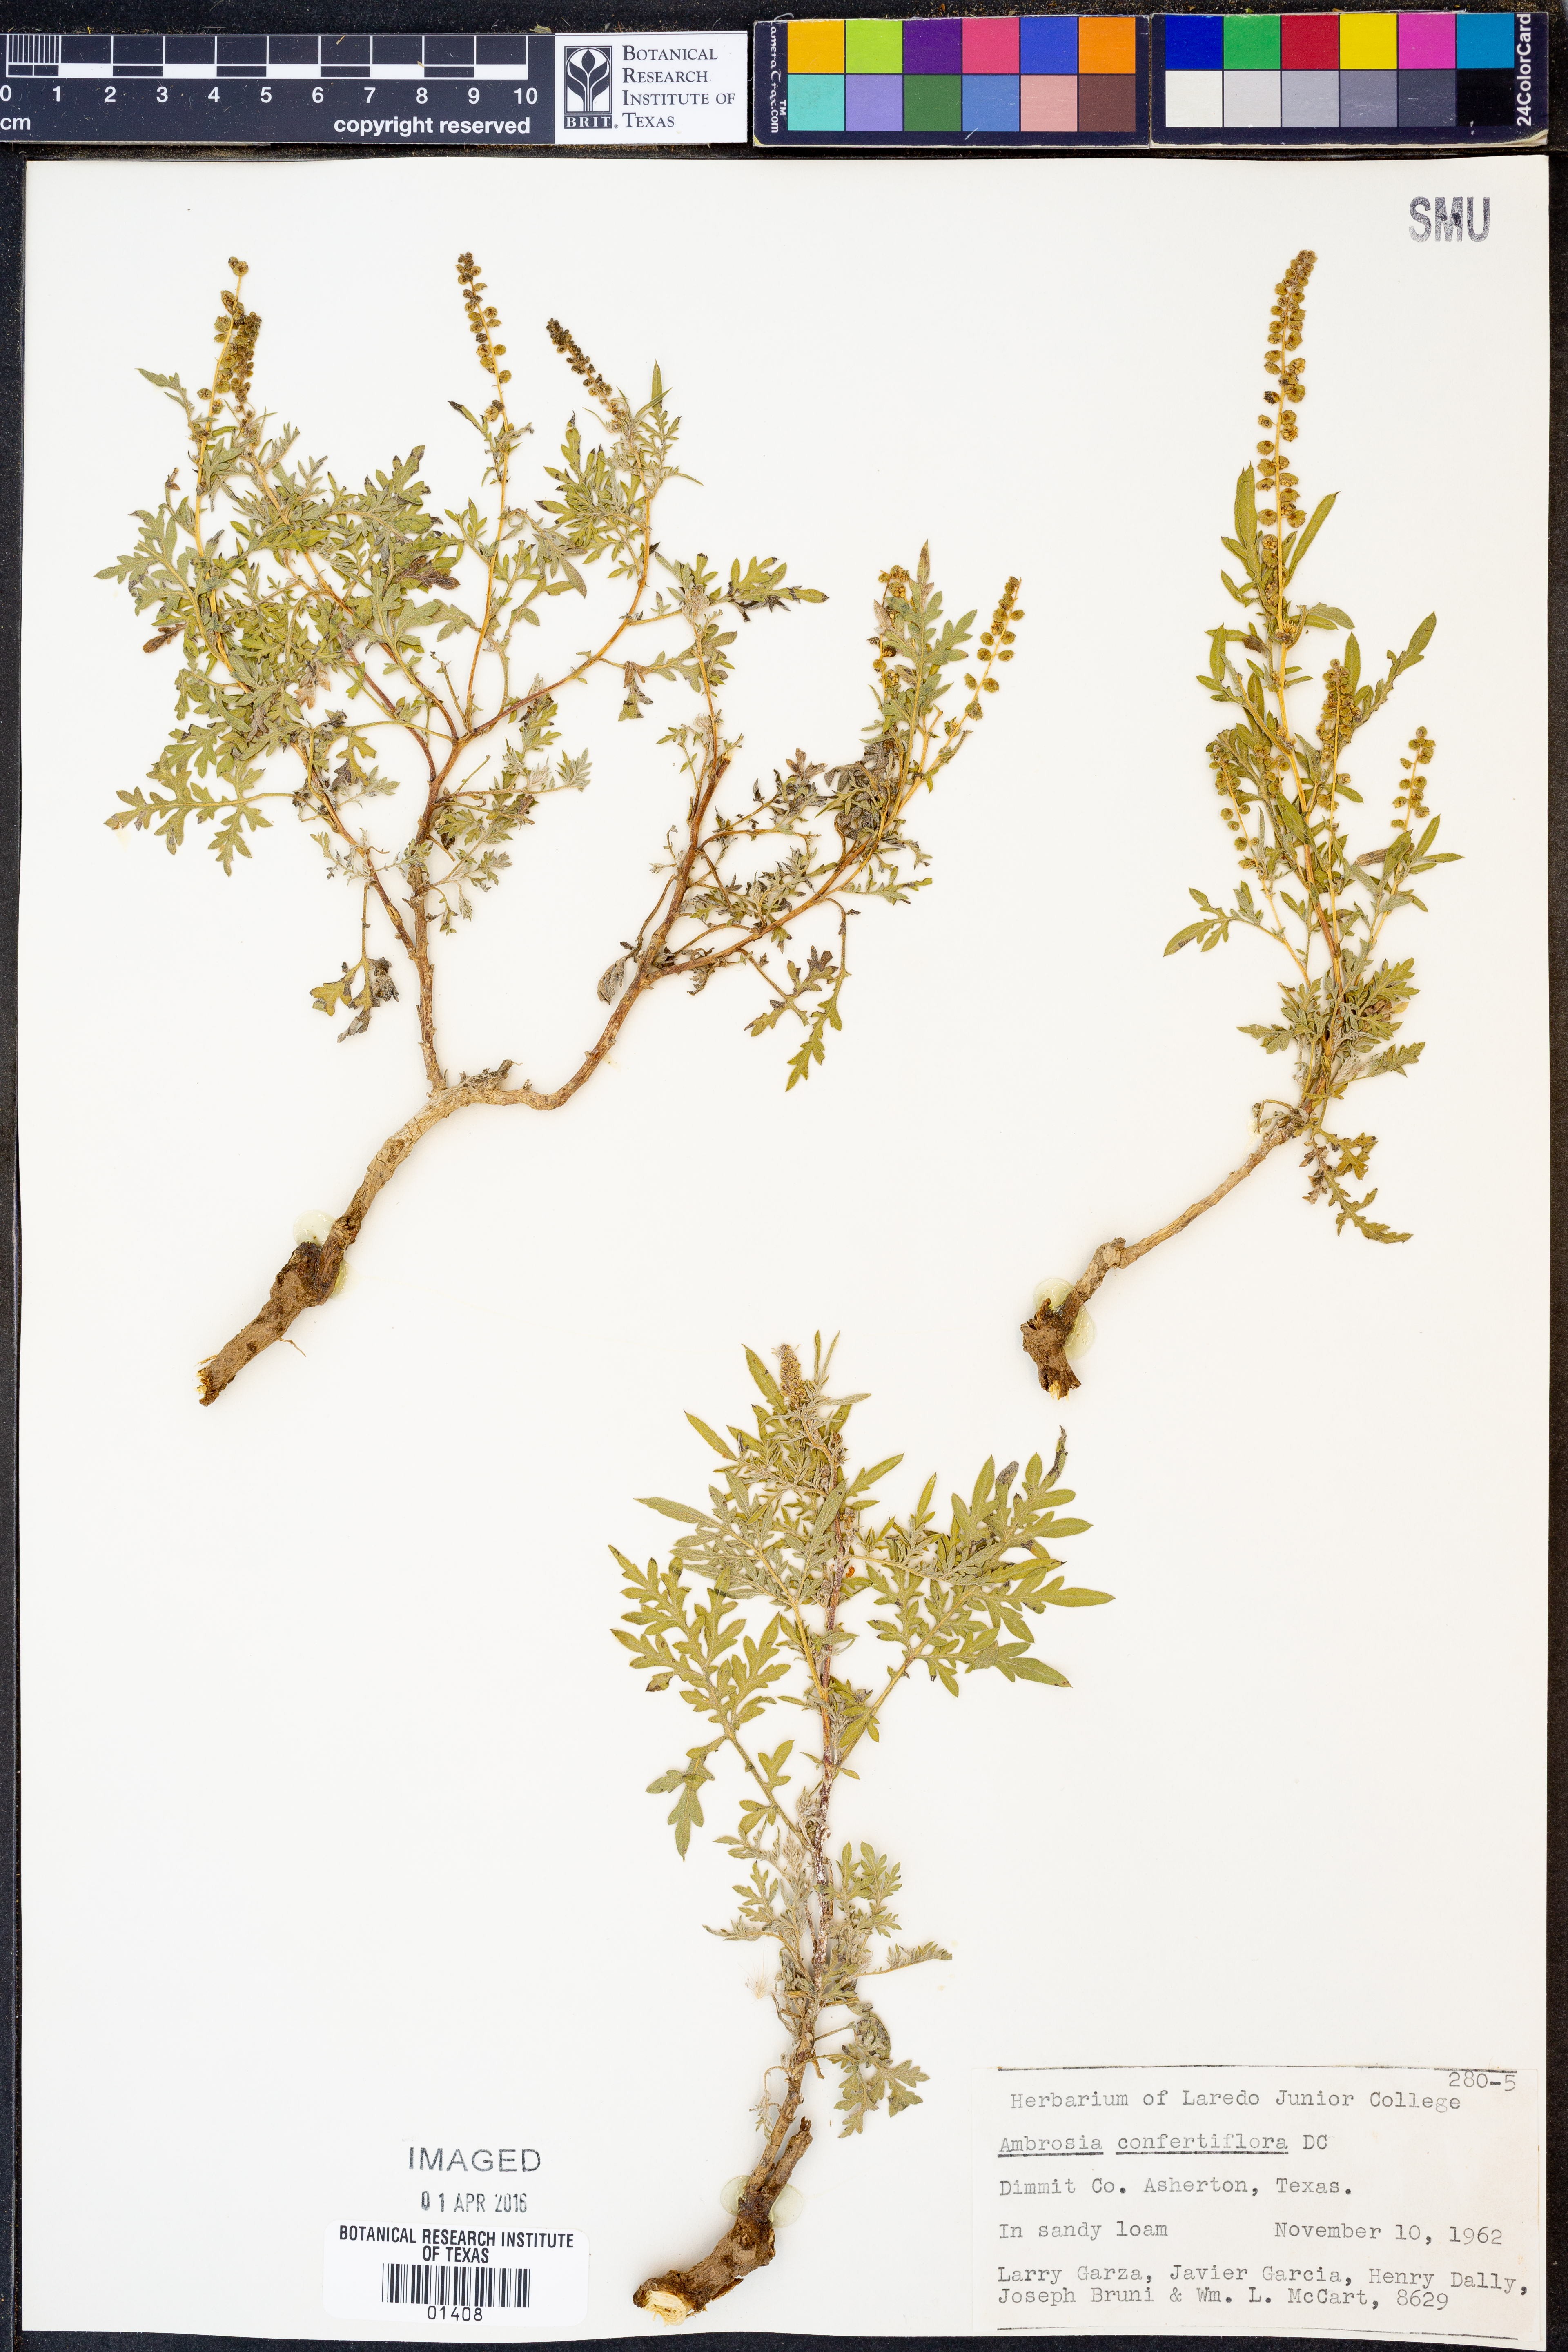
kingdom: Plantae
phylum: Tracheophyta
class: Magnoliopsida
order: Asterales
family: Asteraceae
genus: Ambrosia
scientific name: Ambrosia confertiflora
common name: Bur ragweed
